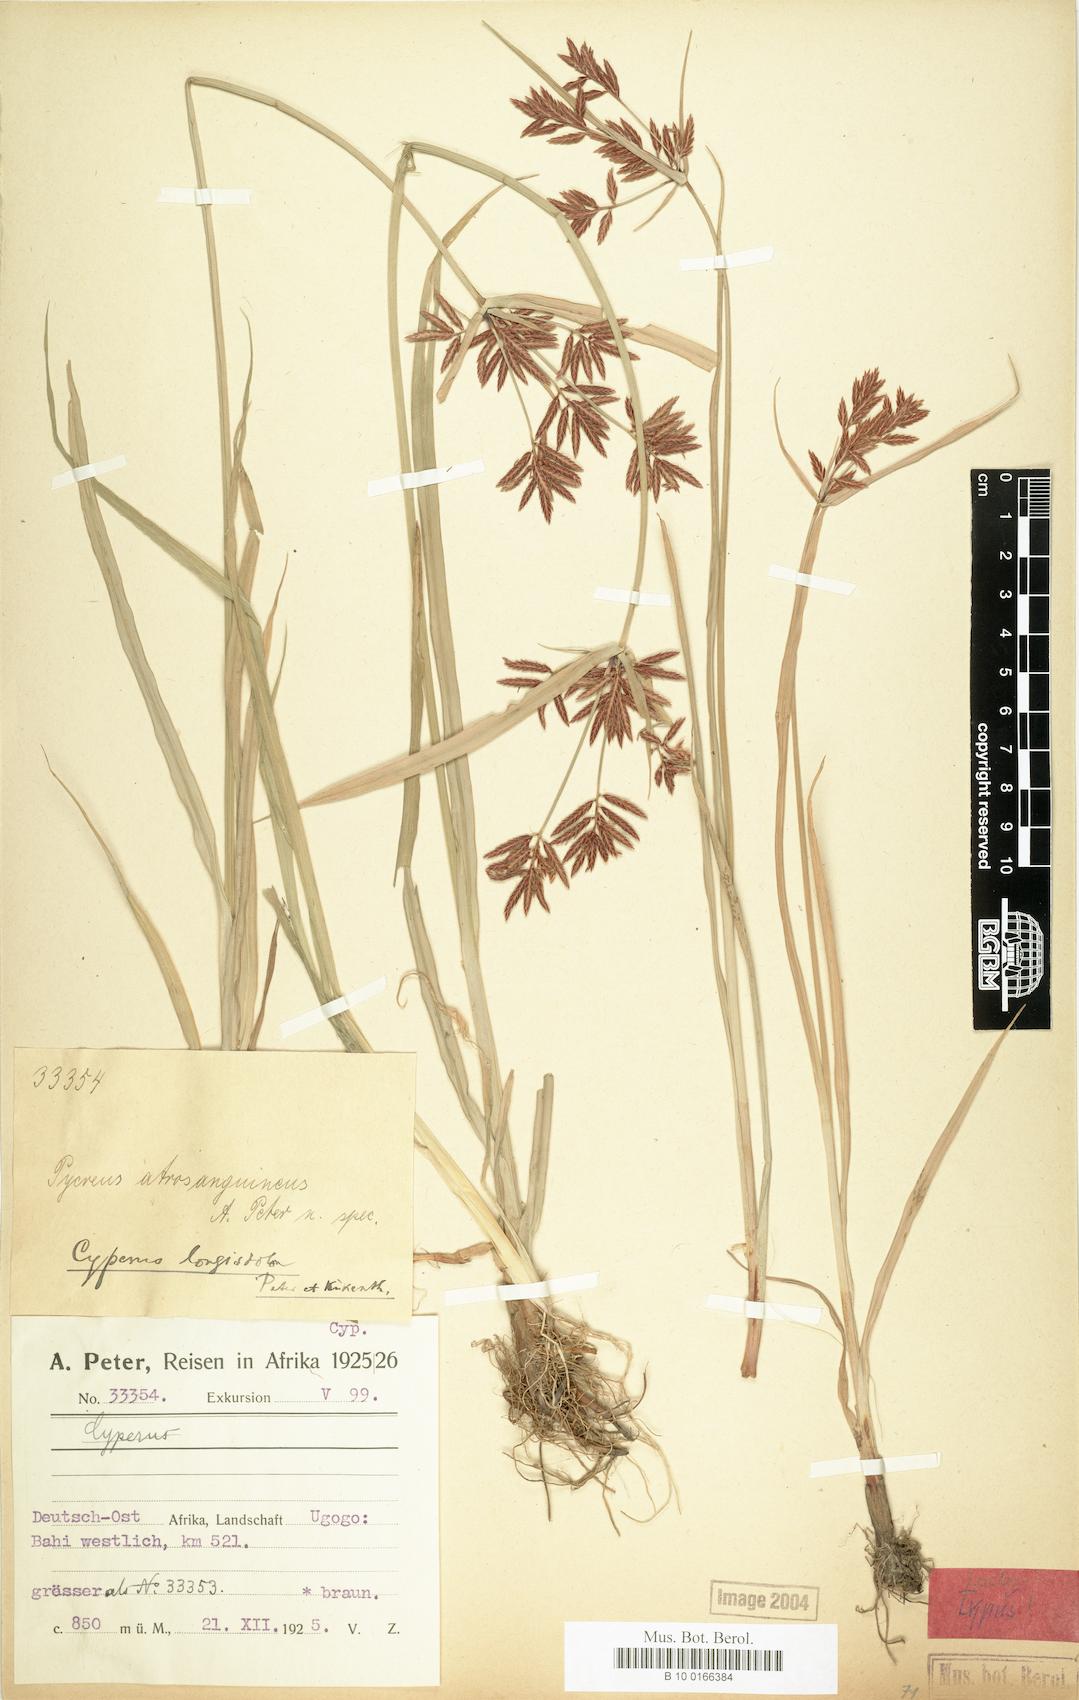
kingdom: Plantae
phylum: Tracheophyta
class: Liliopsida
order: Poales
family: Cyperaceae
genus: Cyperus
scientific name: Cyperus chrysanthus
